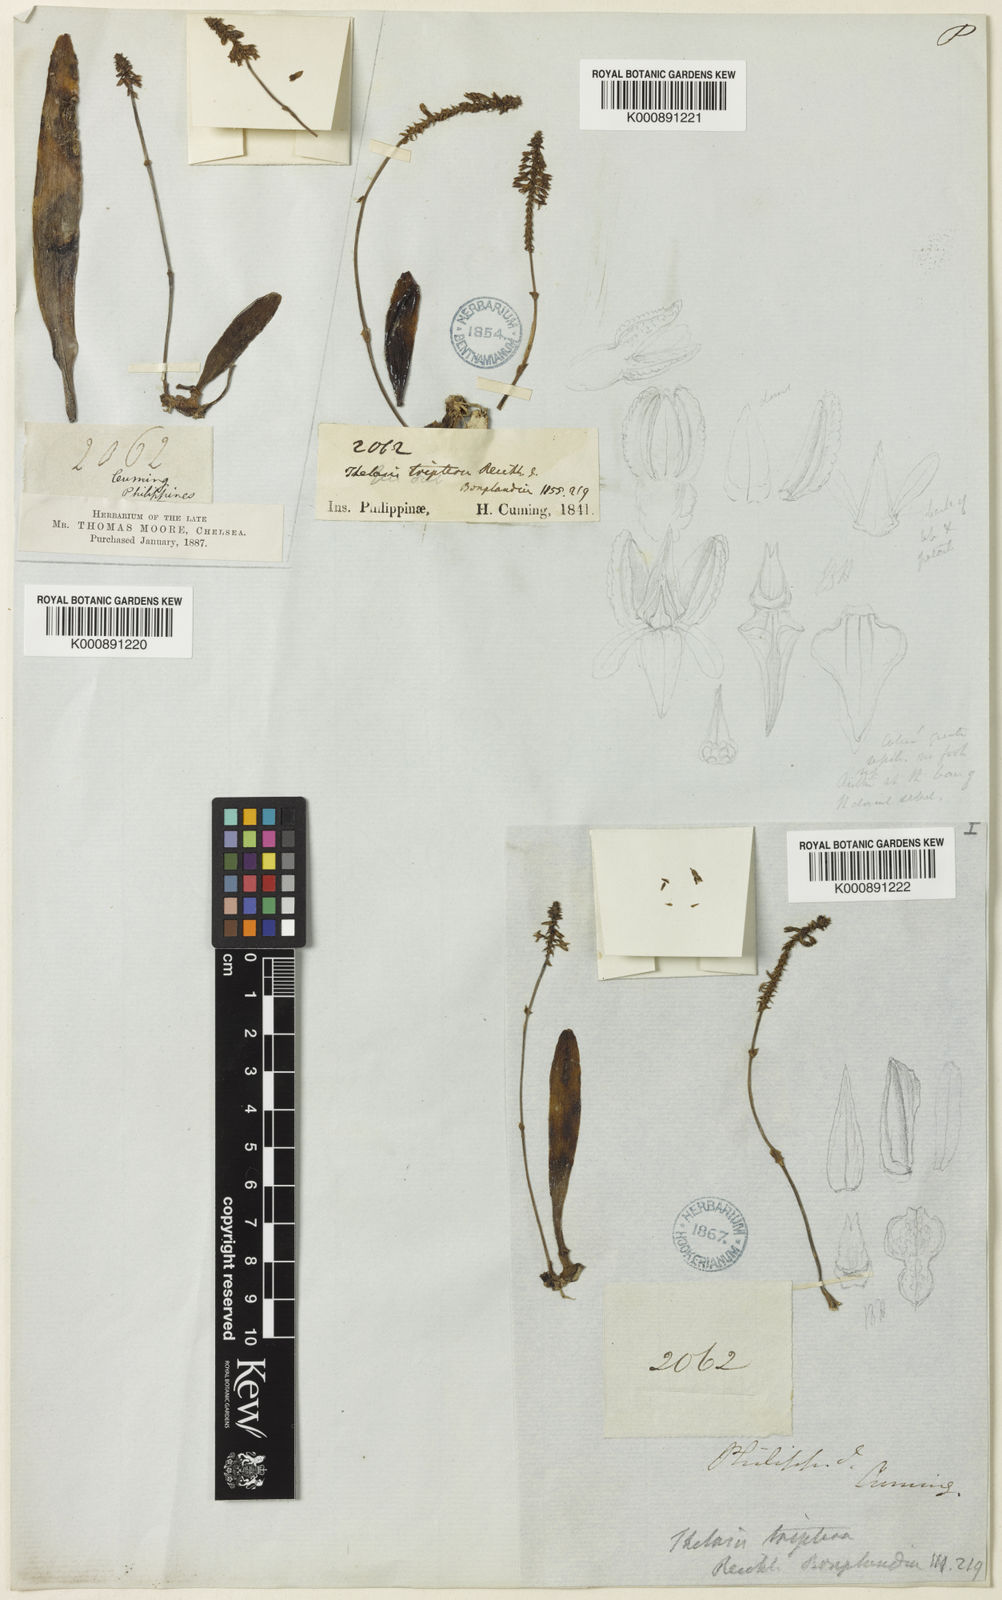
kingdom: Plantae
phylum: Tracheophyta
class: Liliopsida
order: Asparagales
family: Orchidaceae
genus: Thelasis
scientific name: Thelasis sphaerocarpa
